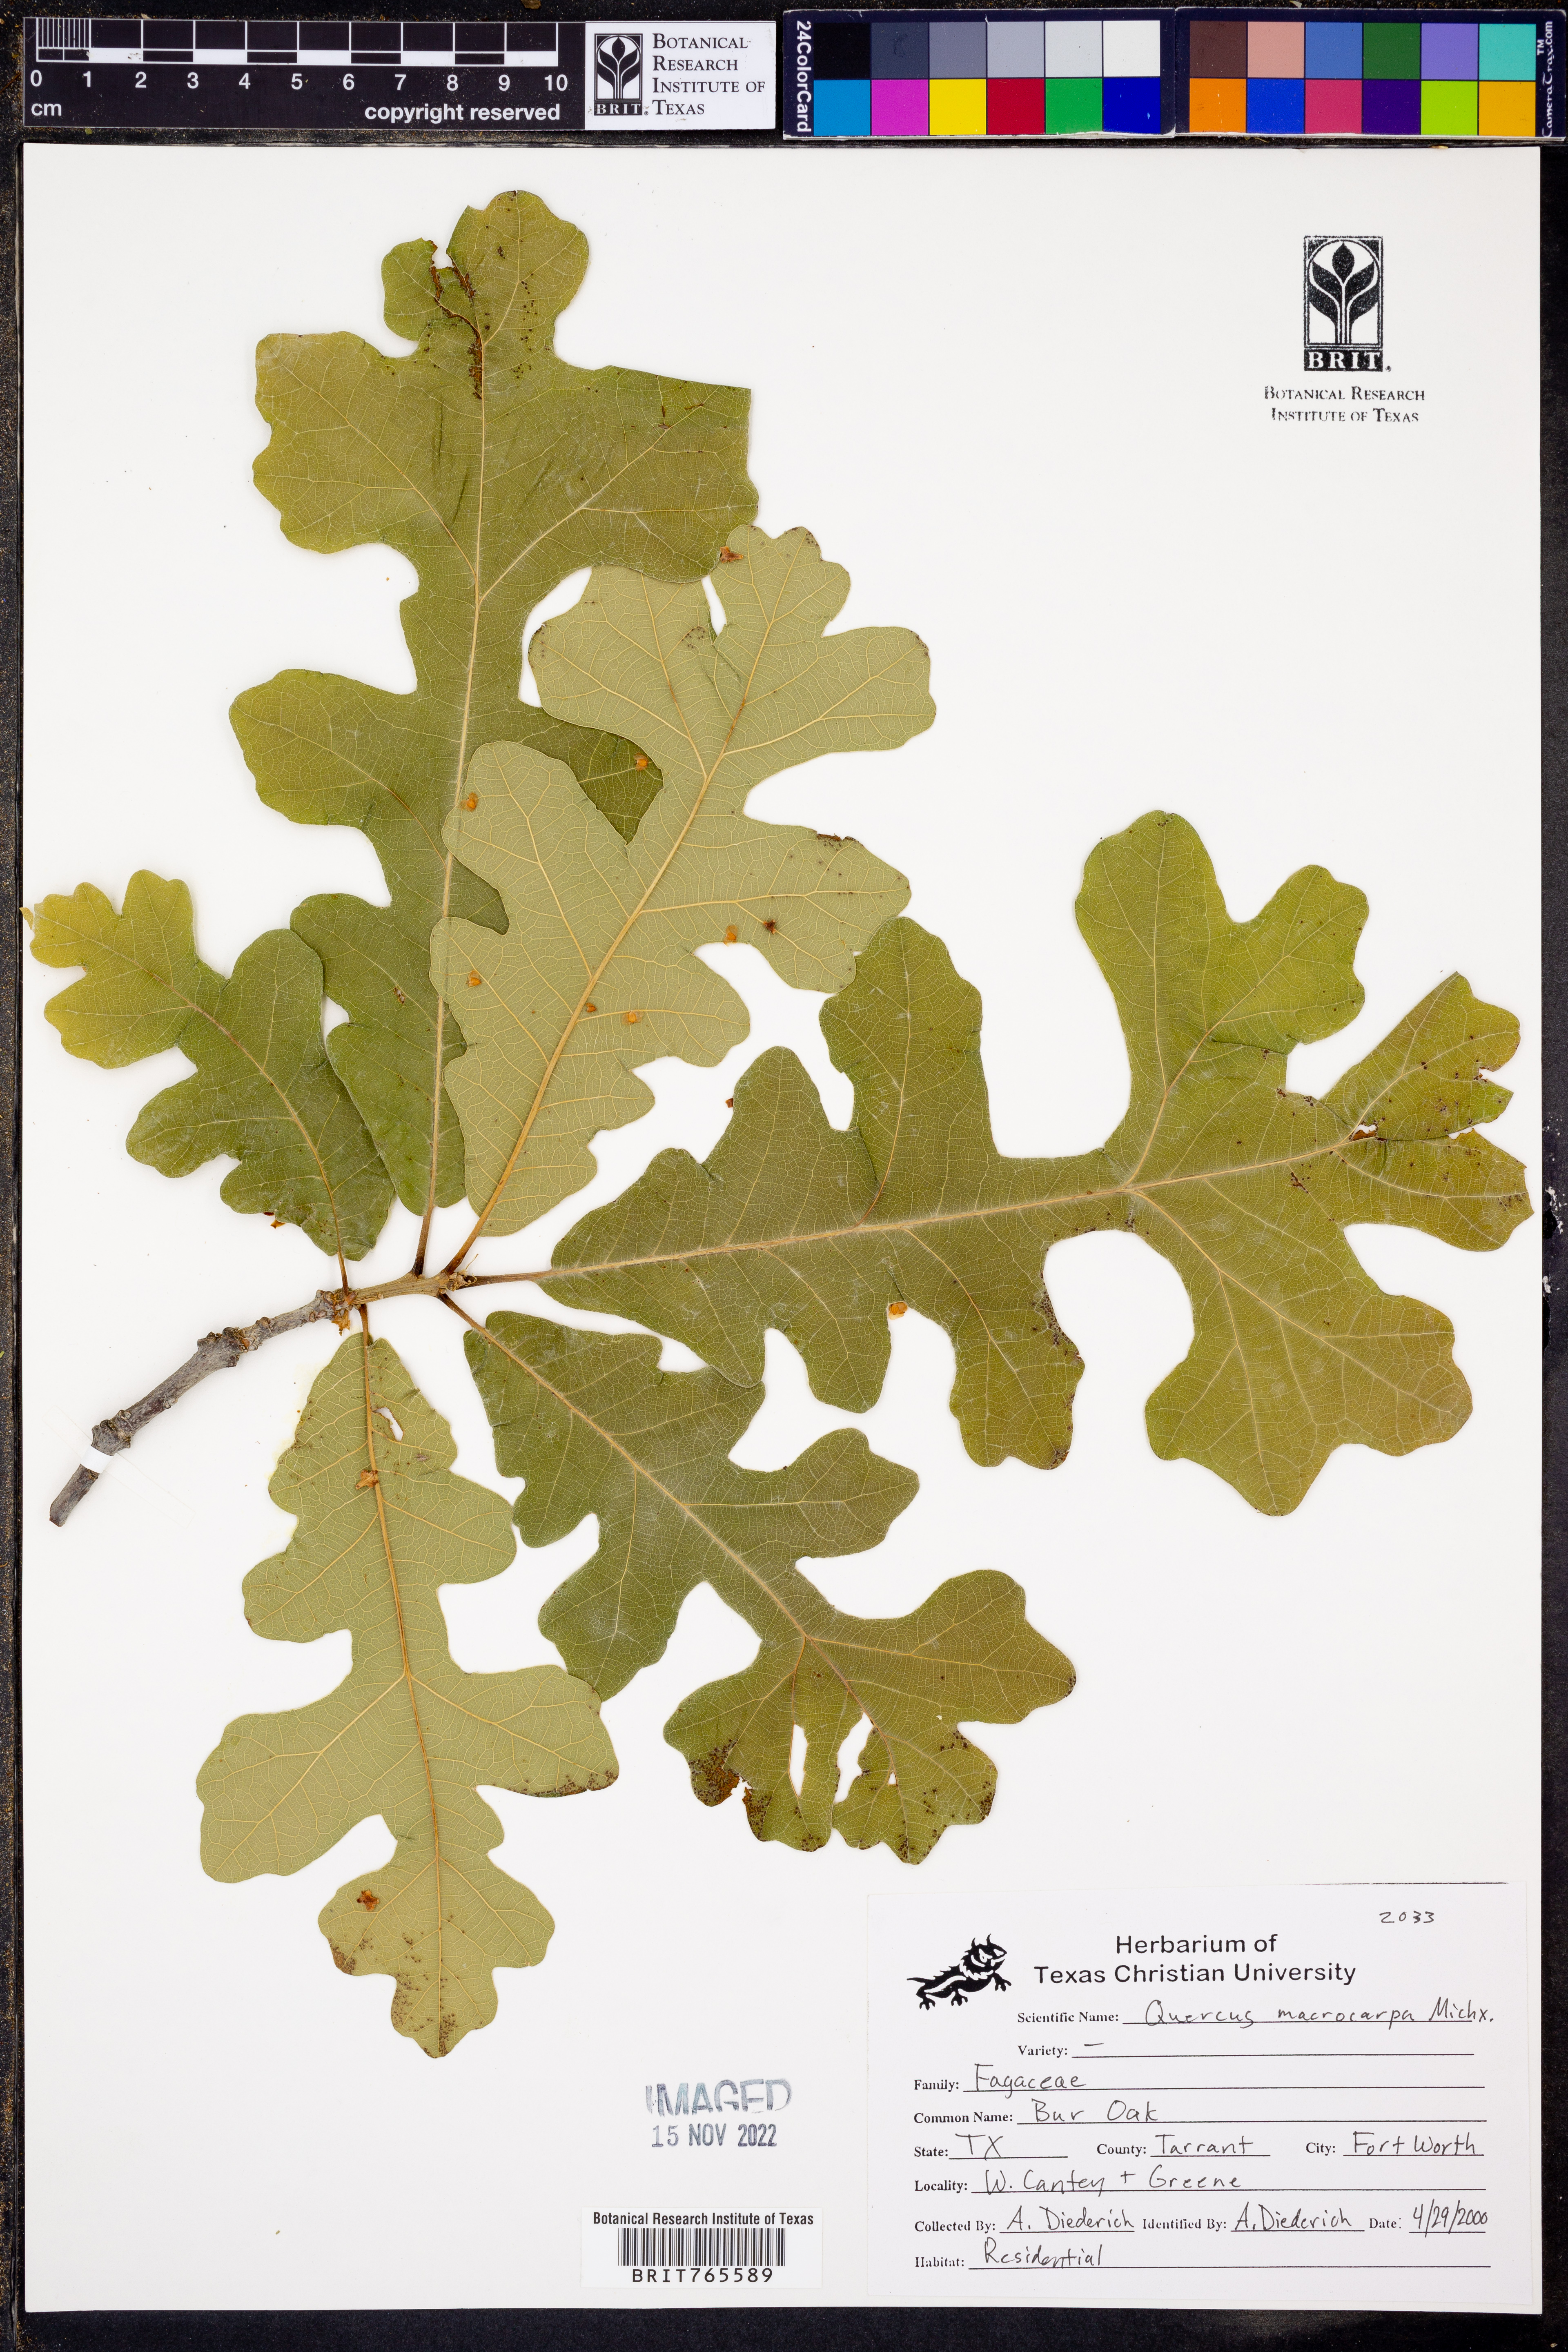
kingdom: Plantae
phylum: Tracheophyta
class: Magnoliopsida
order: Fagales
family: Fagaceae
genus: Quercus
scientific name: Quercus macrocarpa
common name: Bur oak
